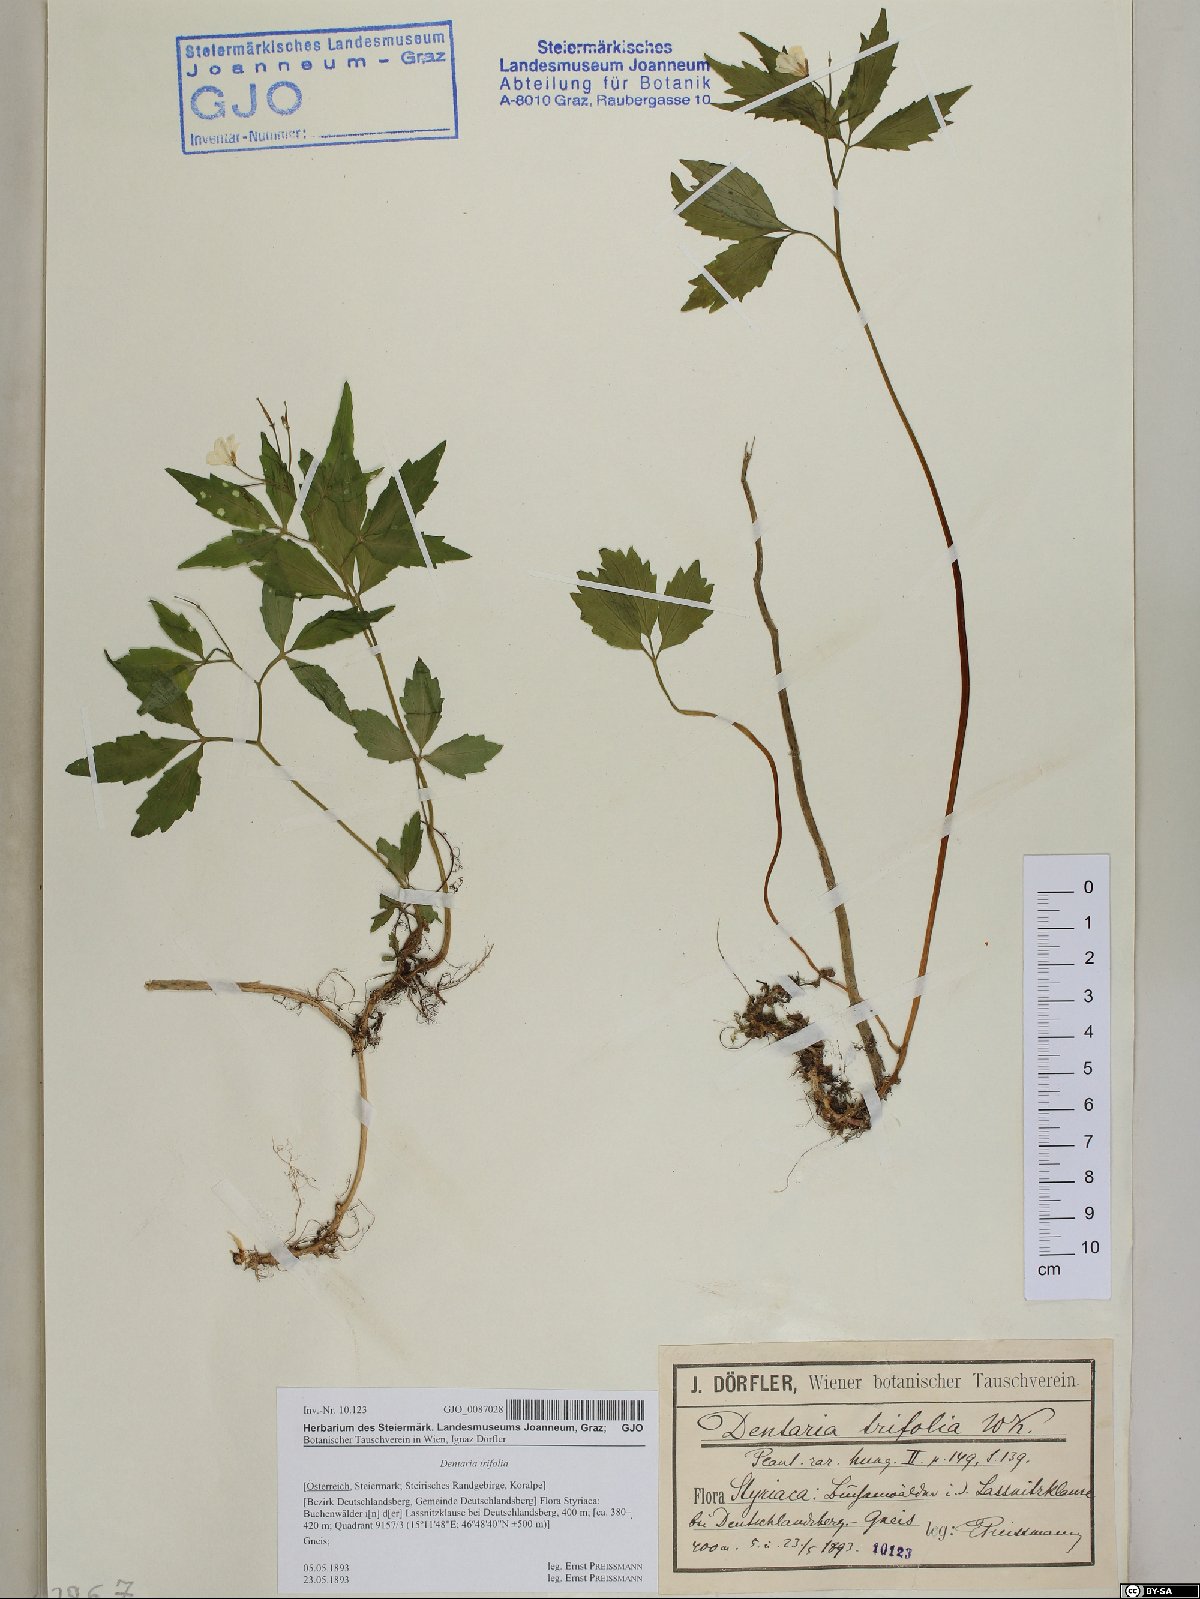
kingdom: Plantae
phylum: Tracheophyta
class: Magnoliopsida
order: Brassicales
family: Brassicaceae
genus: Cardamine
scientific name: Cardamine waldsteinii
